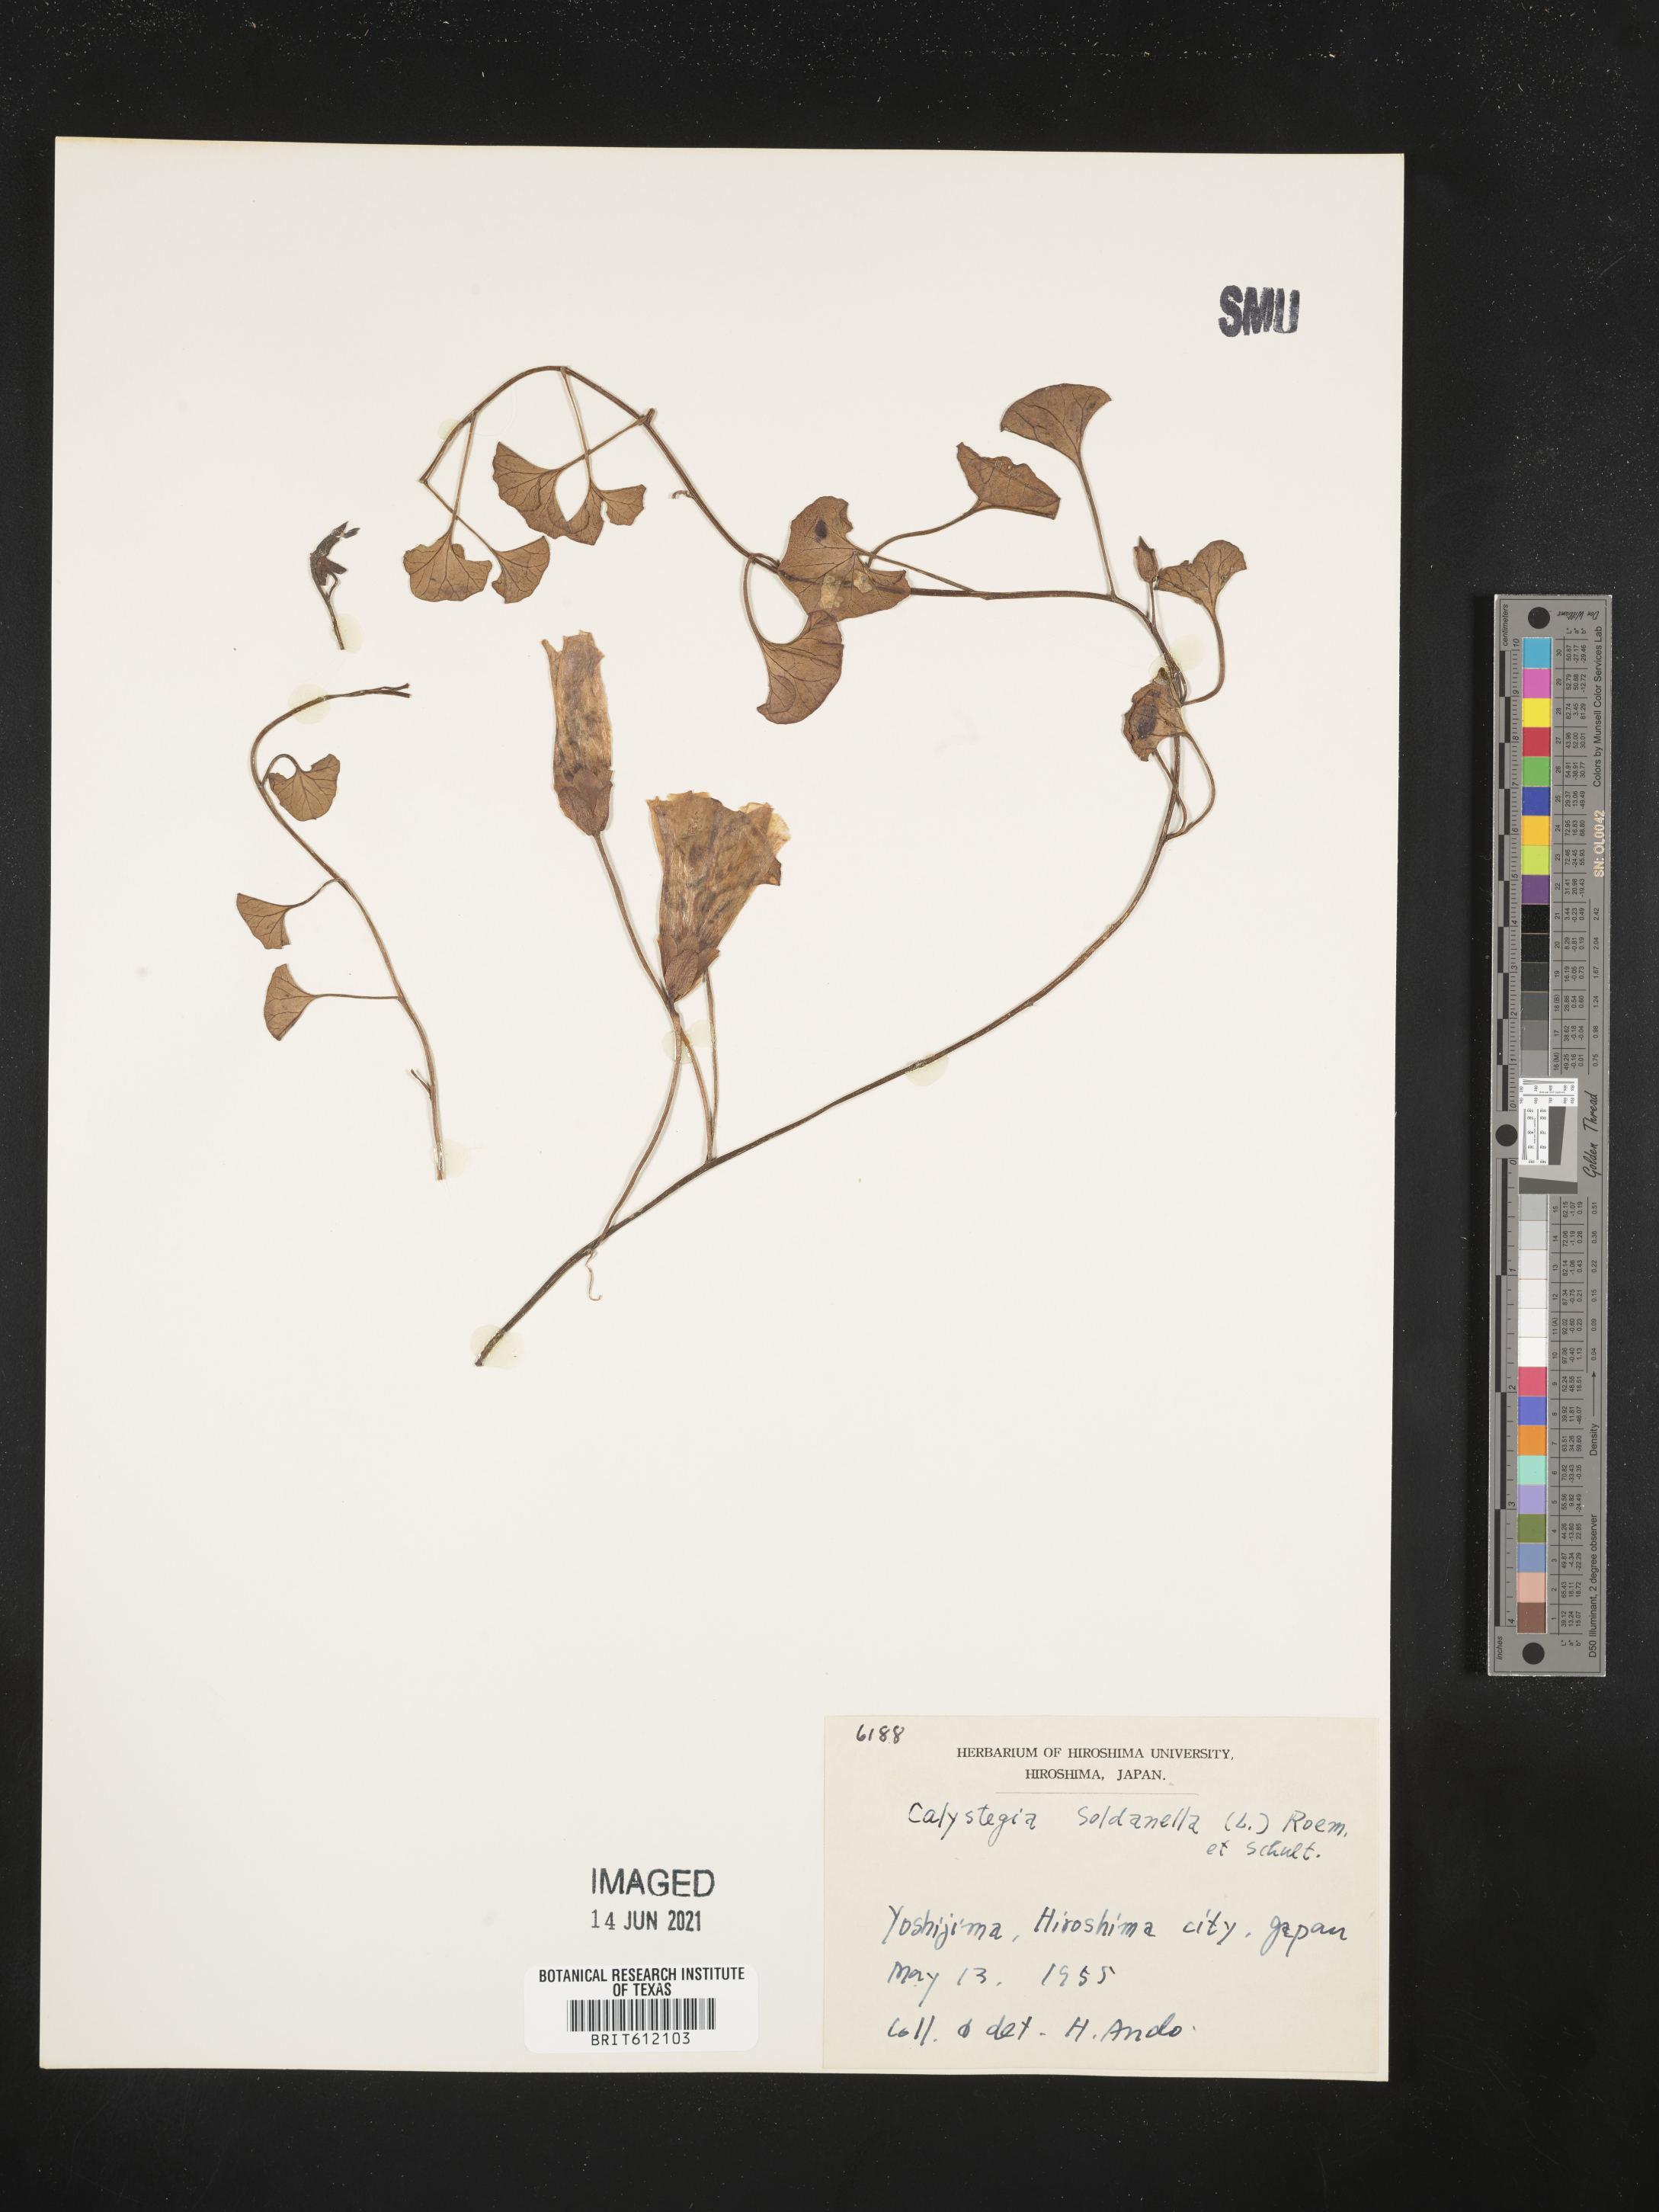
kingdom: Plantae
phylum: Tracheophyta
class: Magnoliopsida
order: Solanales
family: Convolvulaceae
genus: Calystegia
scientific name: Calystegia soldanella
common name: Sea bindweed
